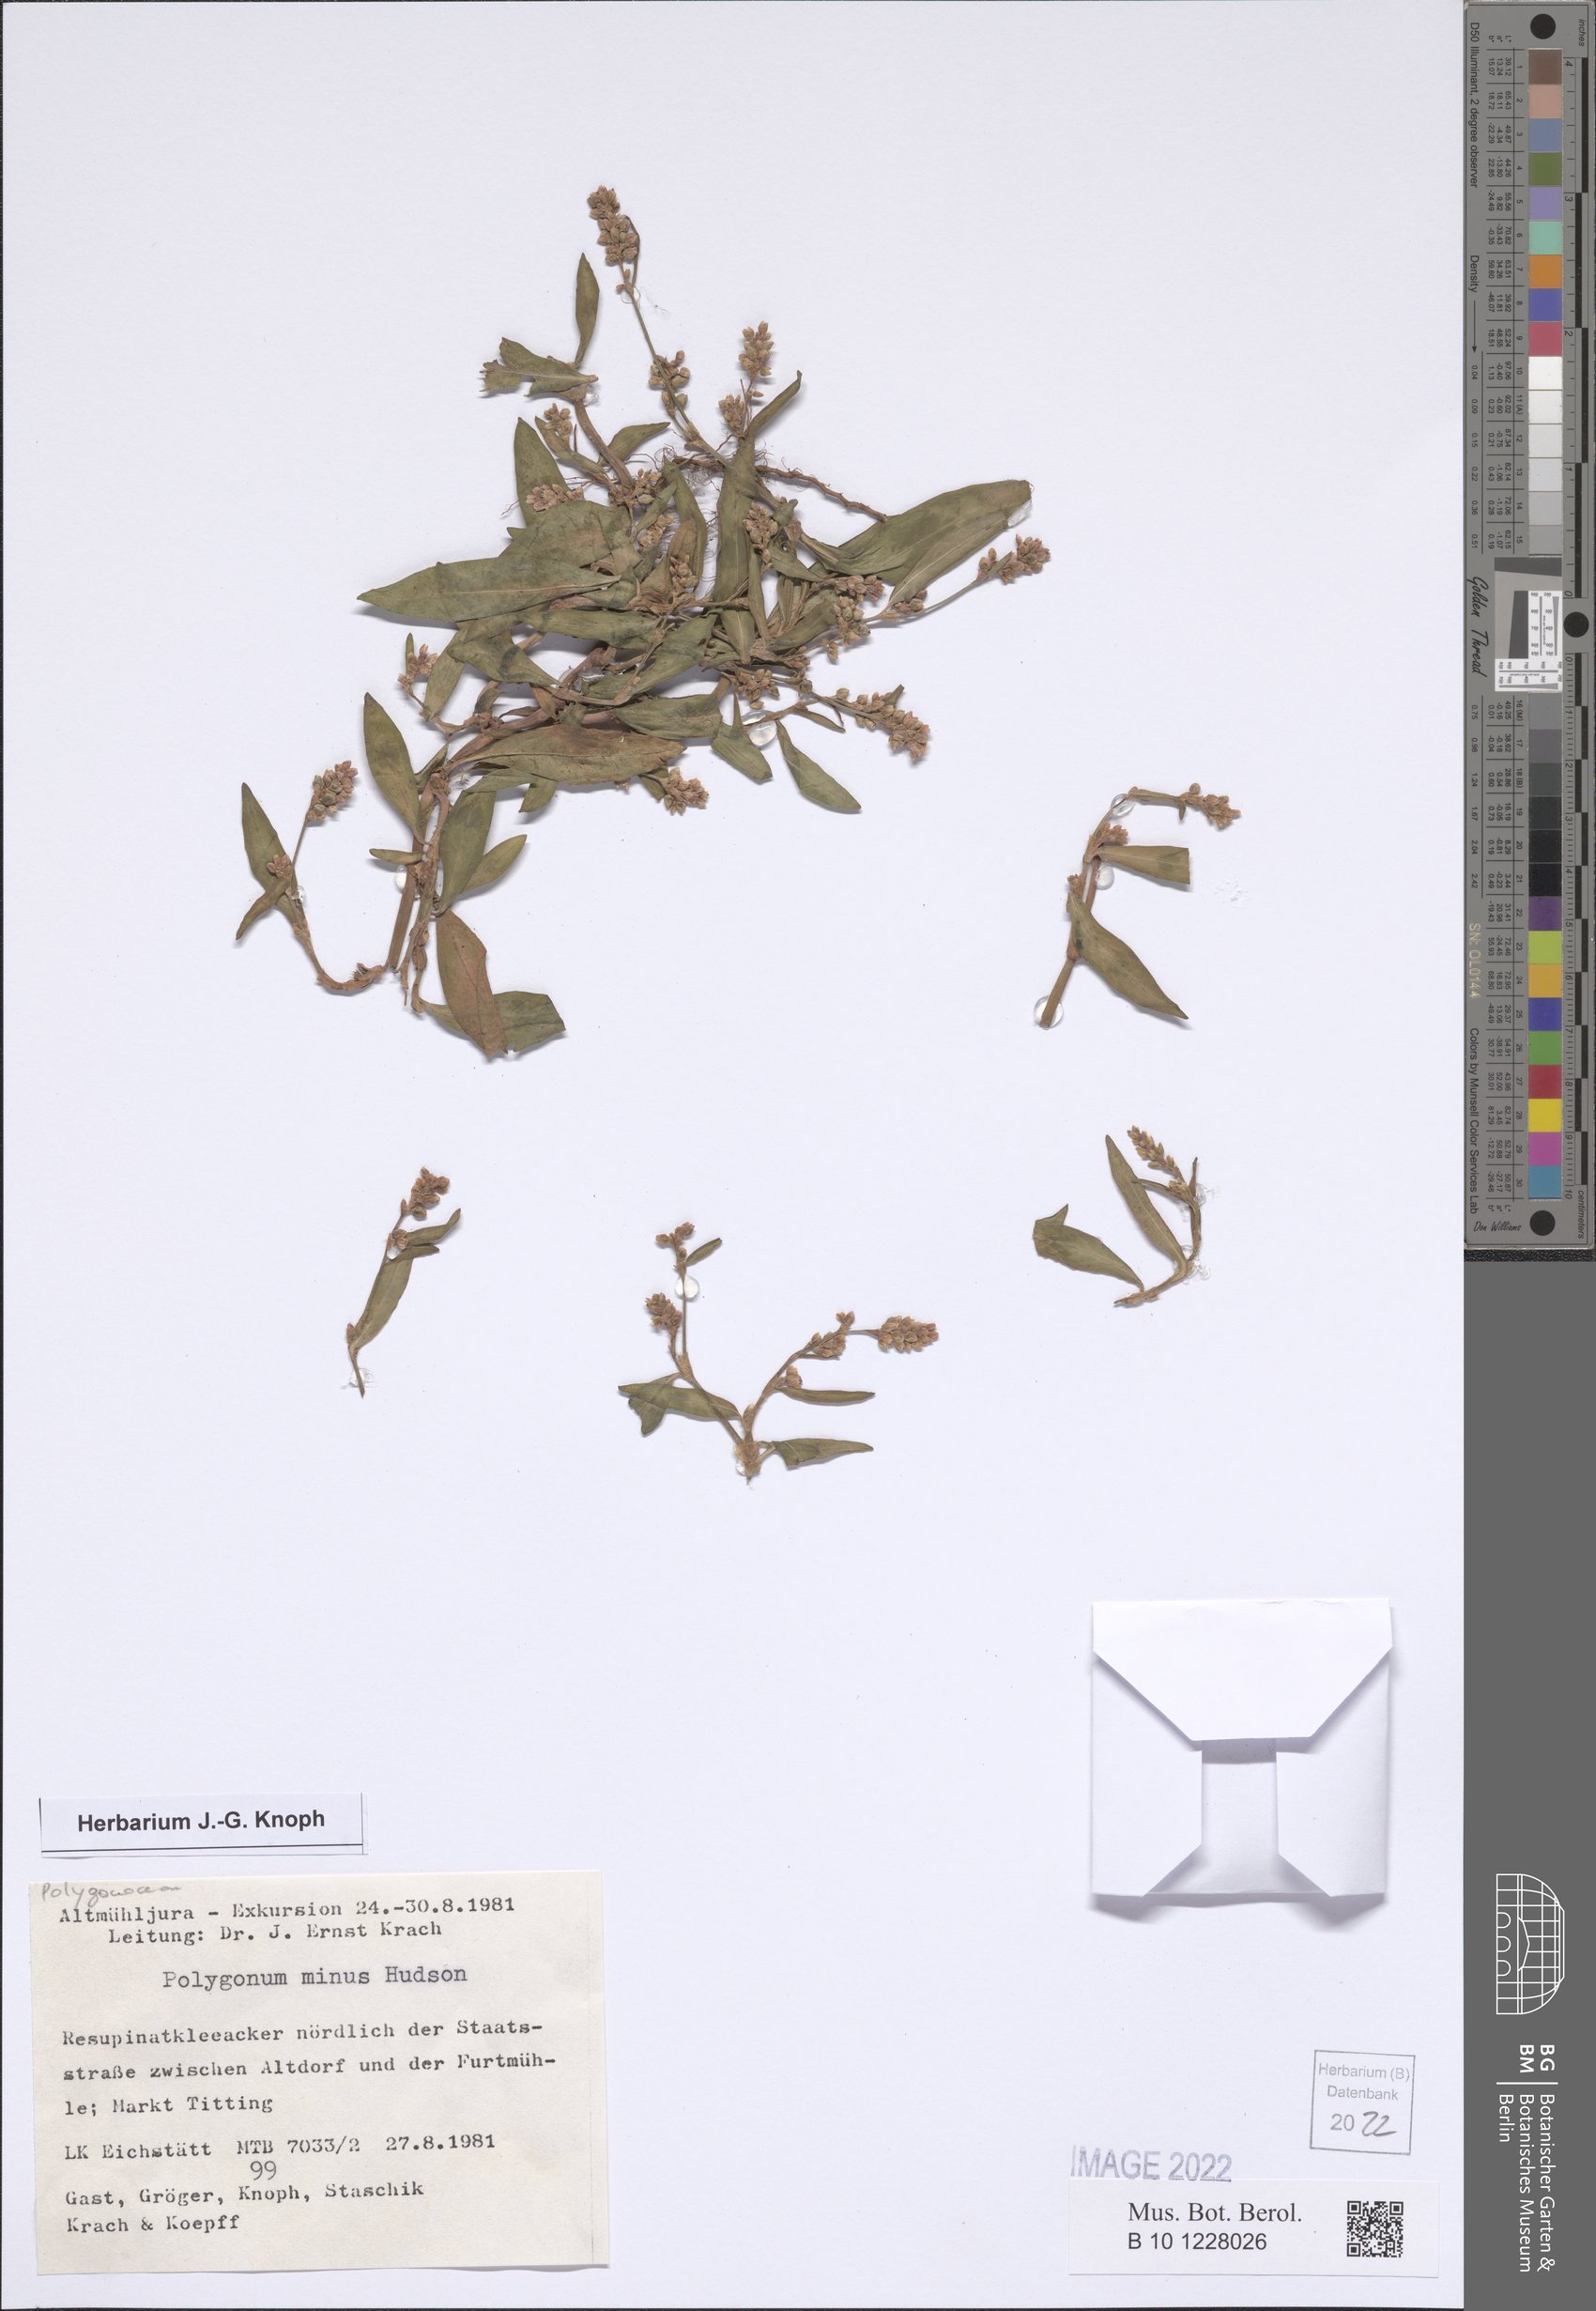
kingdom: Plantae
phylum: Tracheophyta
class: Magnoliopsida
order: Caryophyllales
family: Polygonaceae
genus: Persicaria
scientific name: Persicaria minor
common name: Small water-pepper
